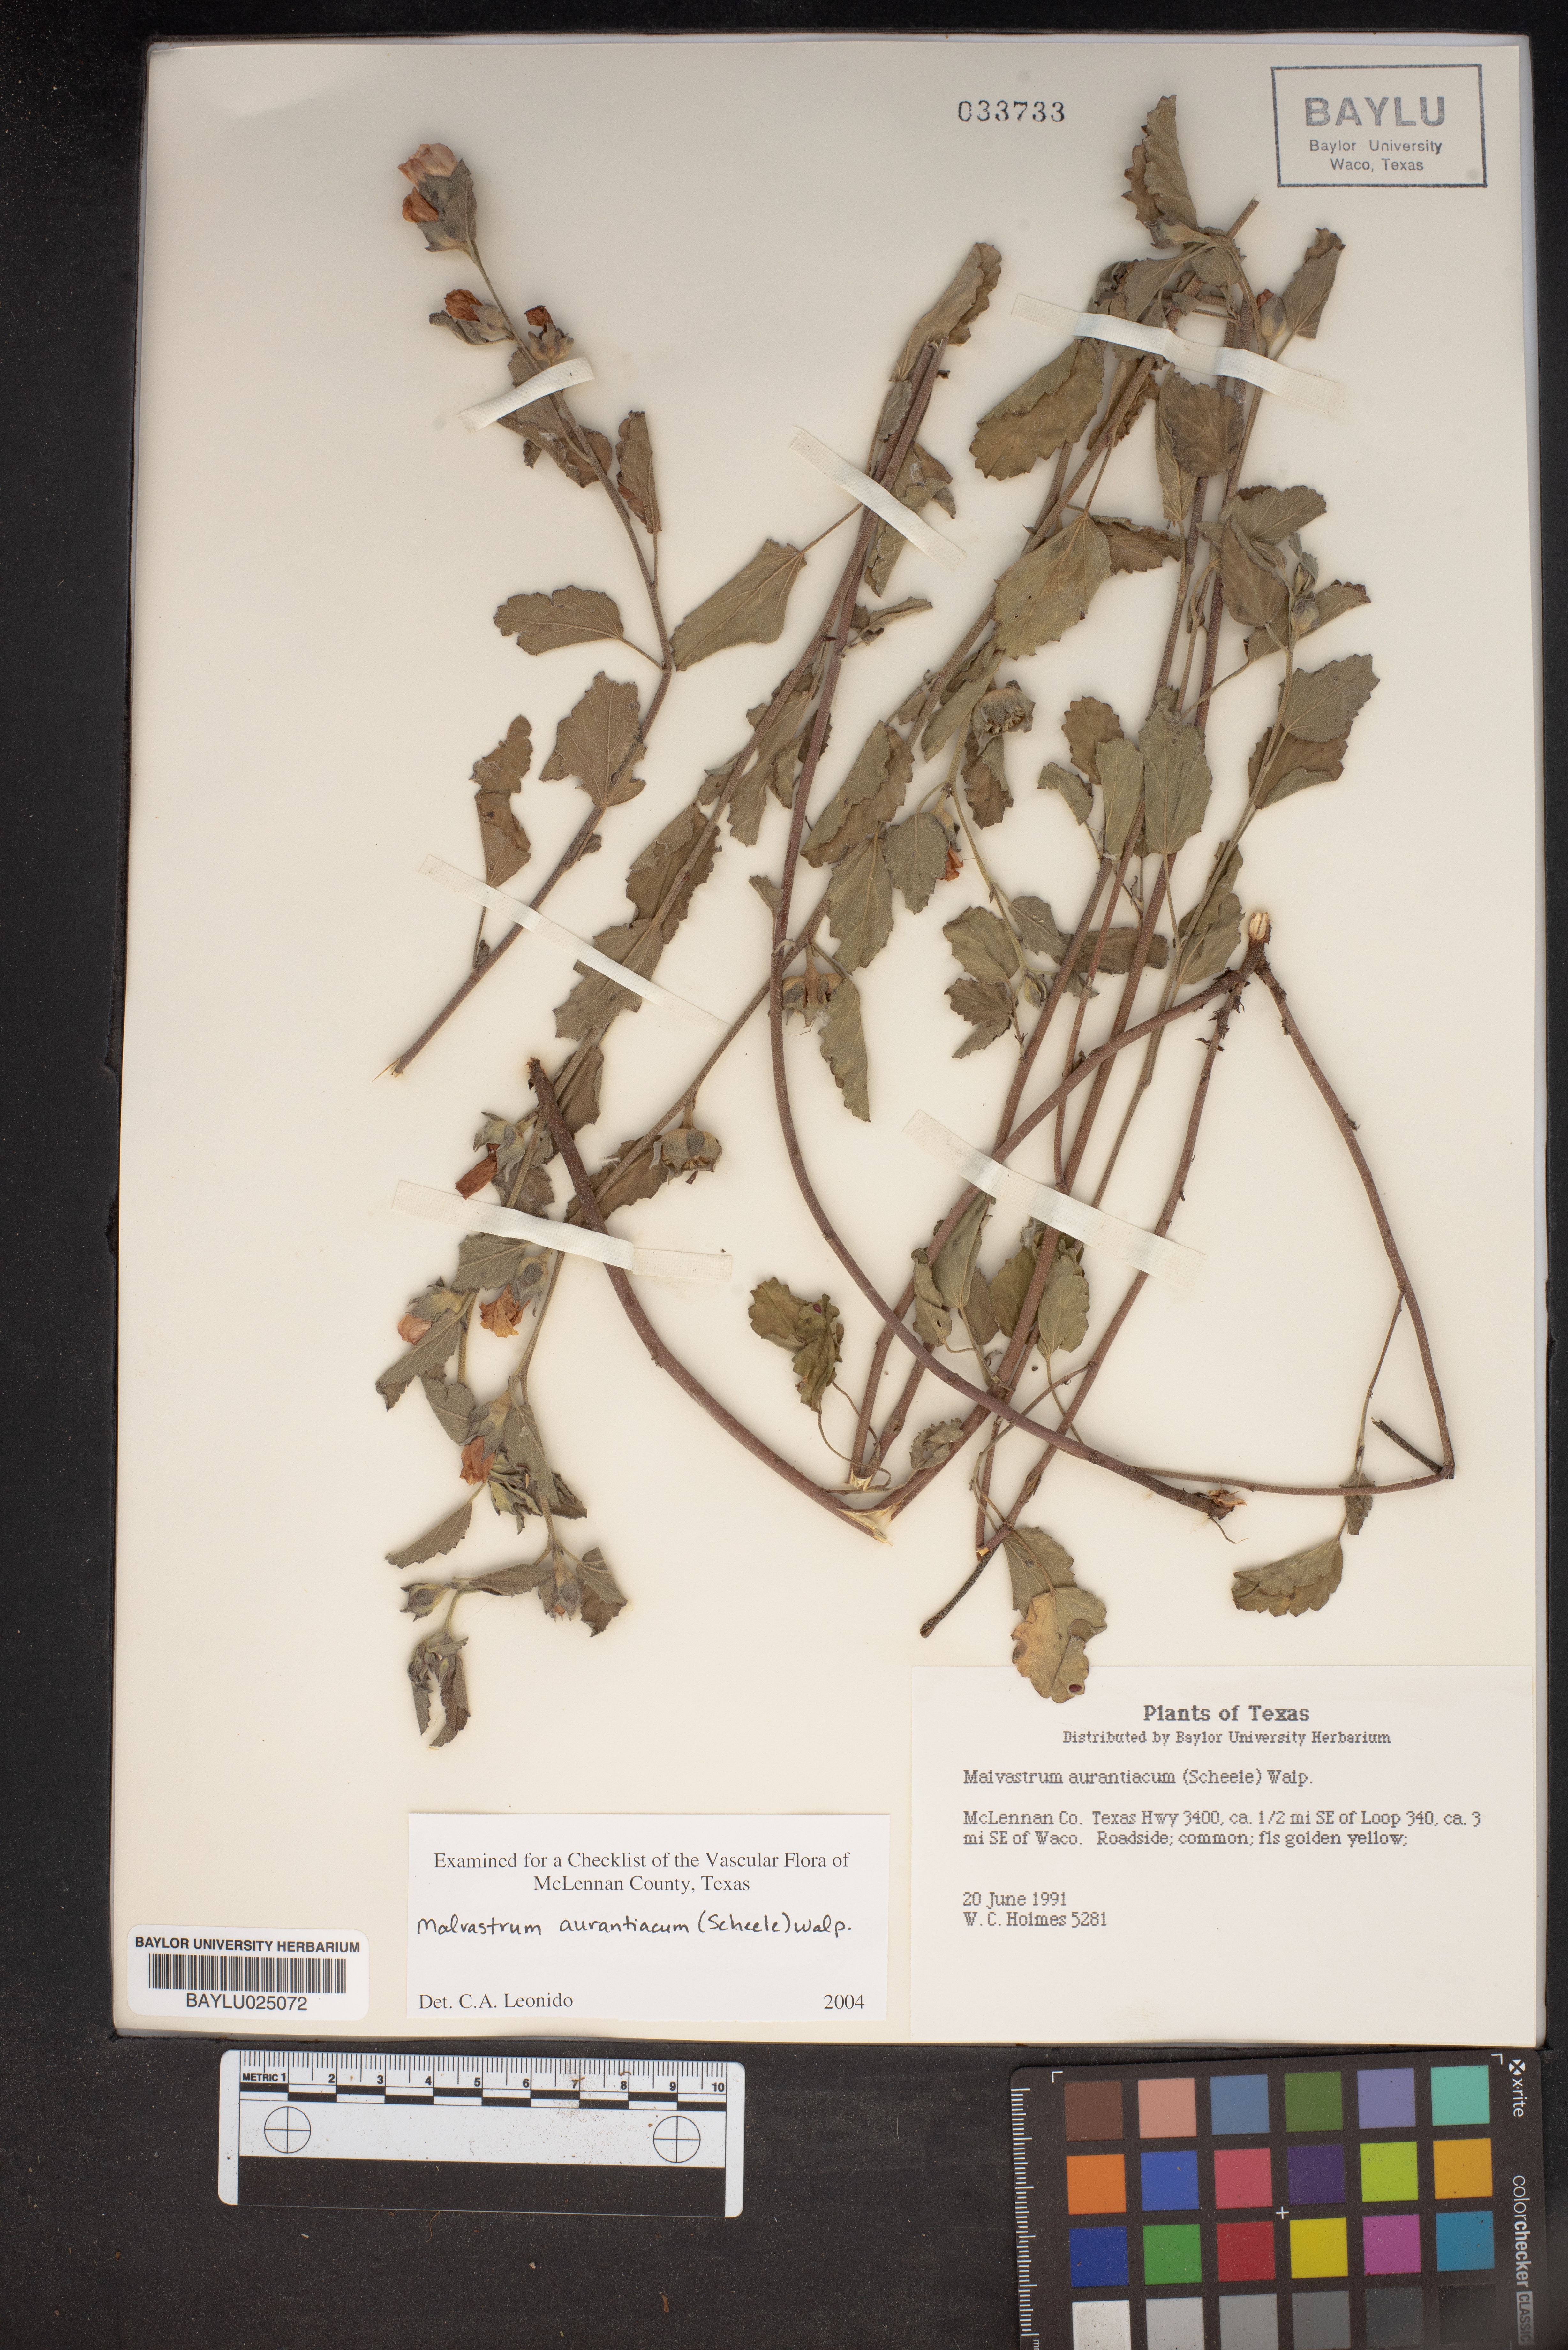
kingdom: Plantae
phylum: Tracheophyta
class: Magnoliopsida
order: Malvales
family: Malvaceae
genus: Malvastrum
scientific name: Malvastrum aurantiacum
